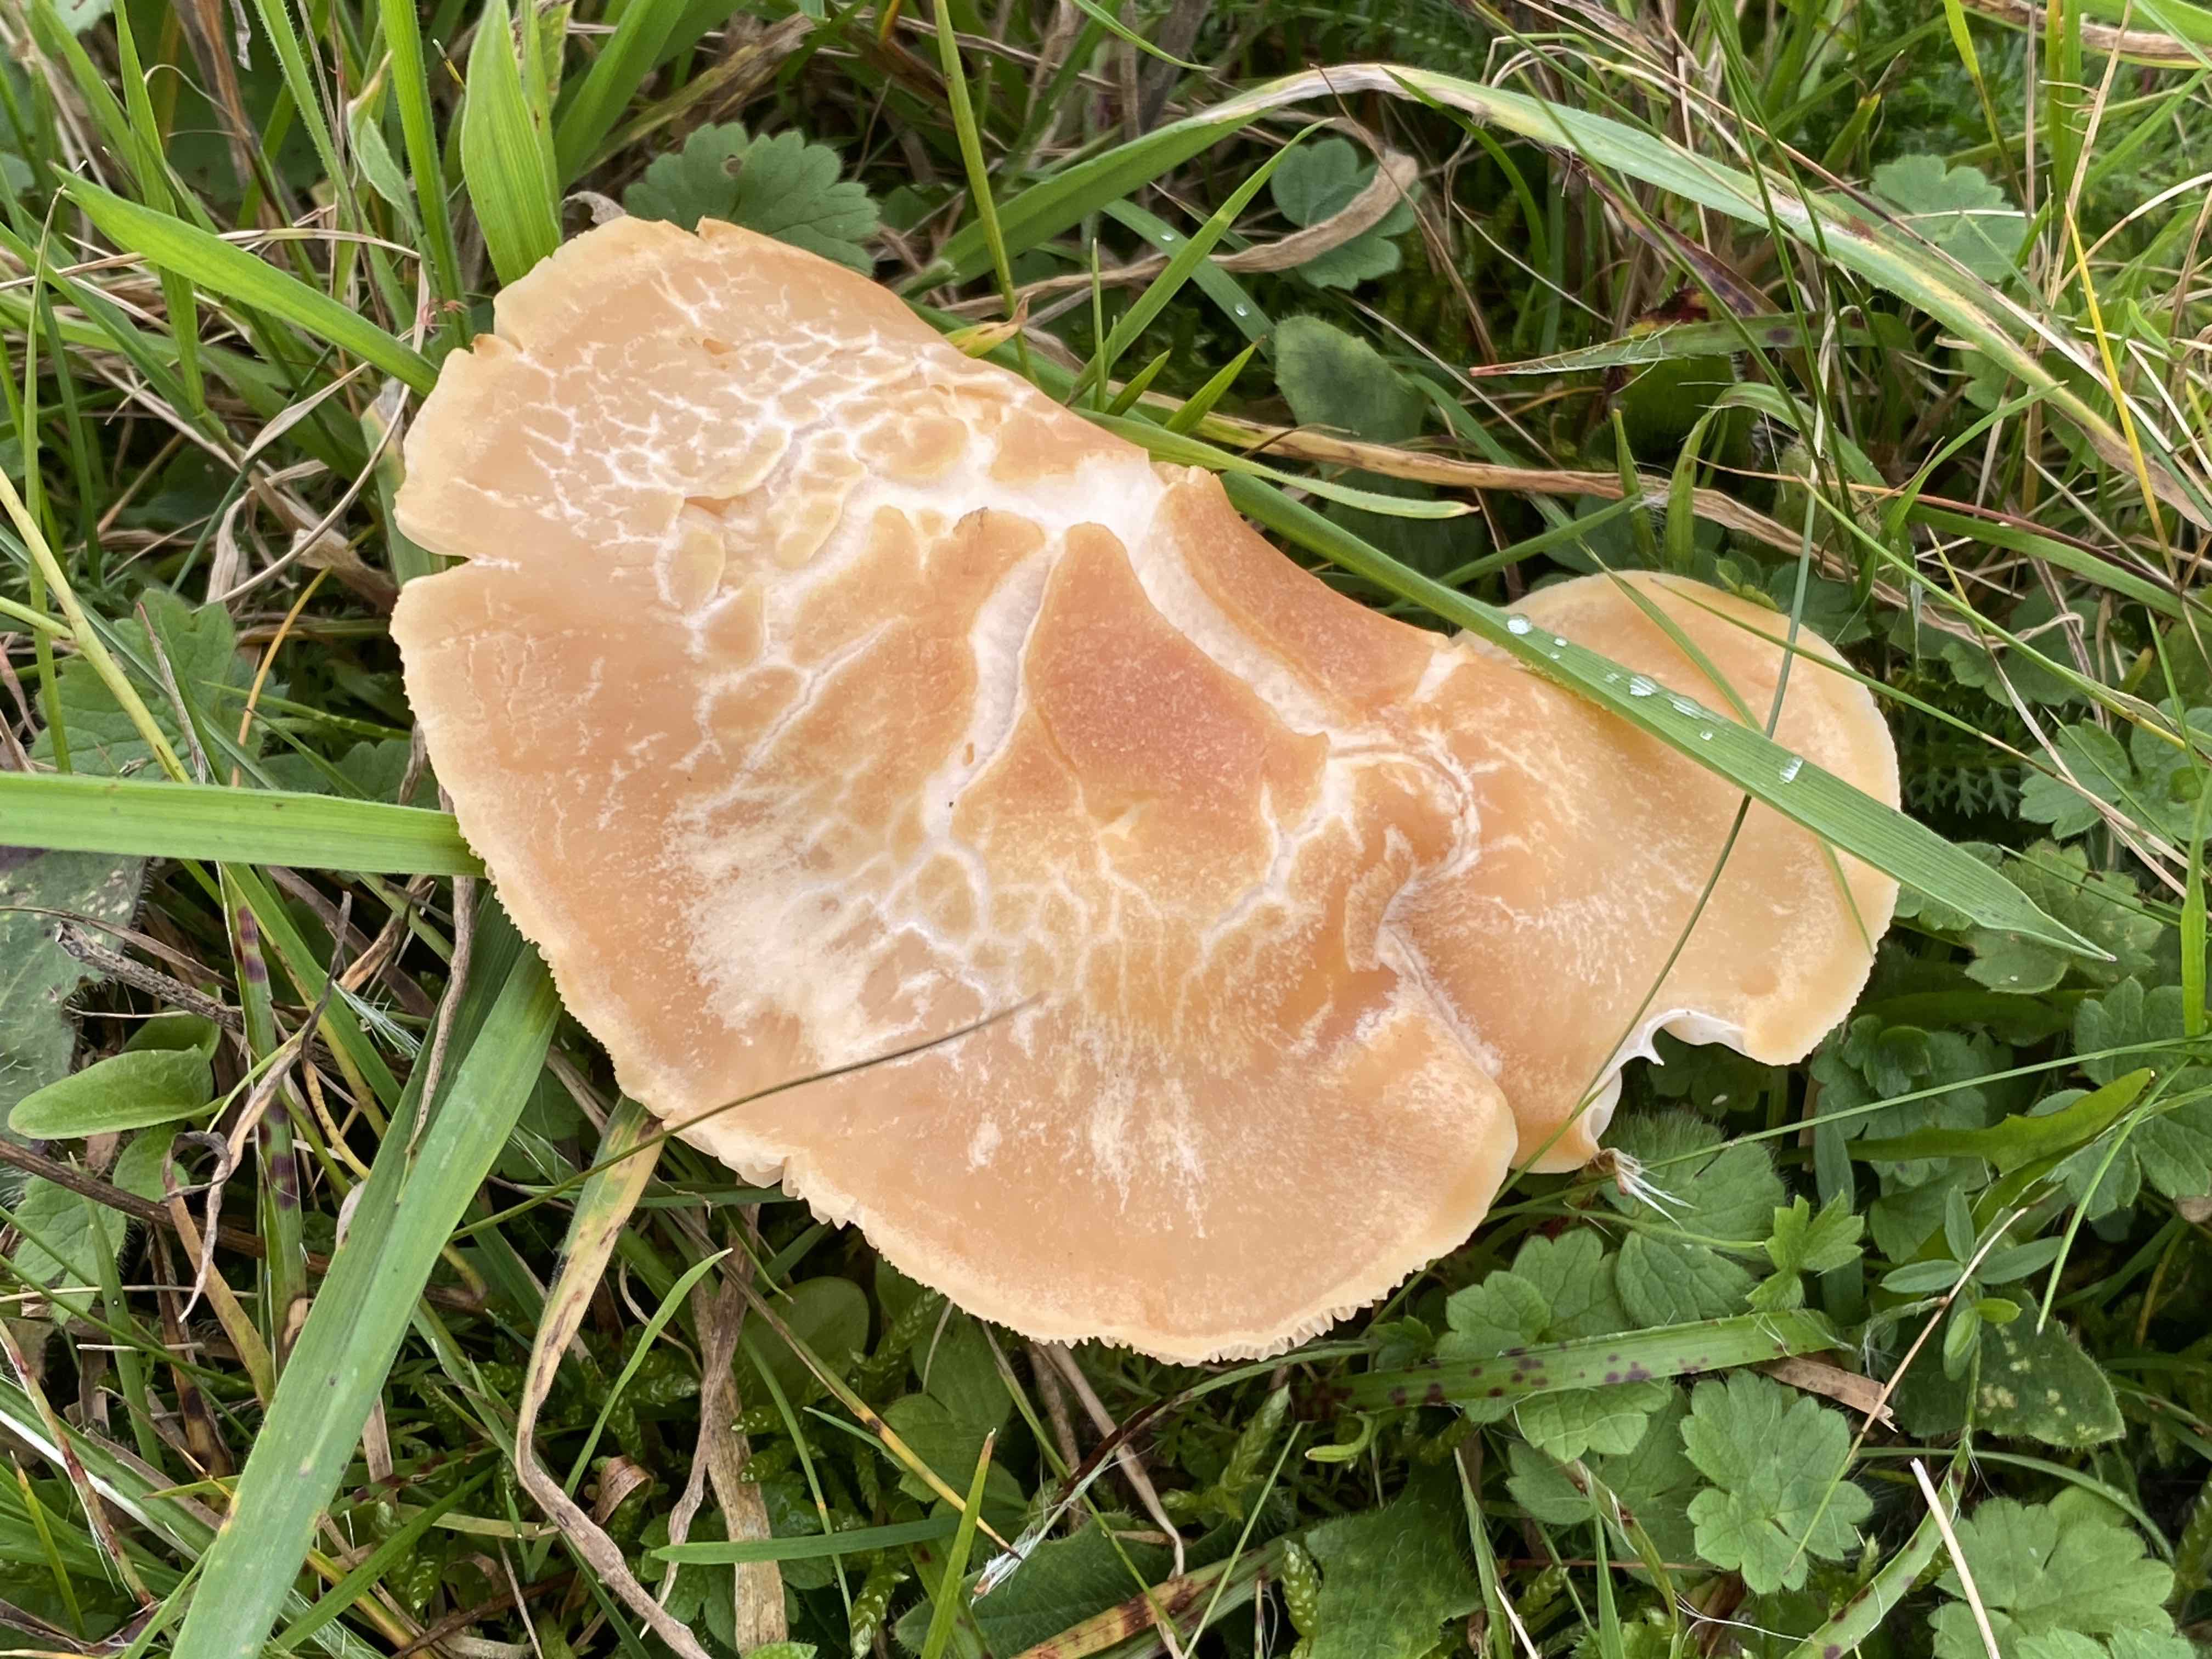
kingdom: Fungi
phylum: Basidiomycota
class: Agaricomycetes
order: Agaricales
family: Hygrophoraceae
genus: Cuphophyllus
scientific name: Cuphophyllus pratensis
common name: eng-vokshat
